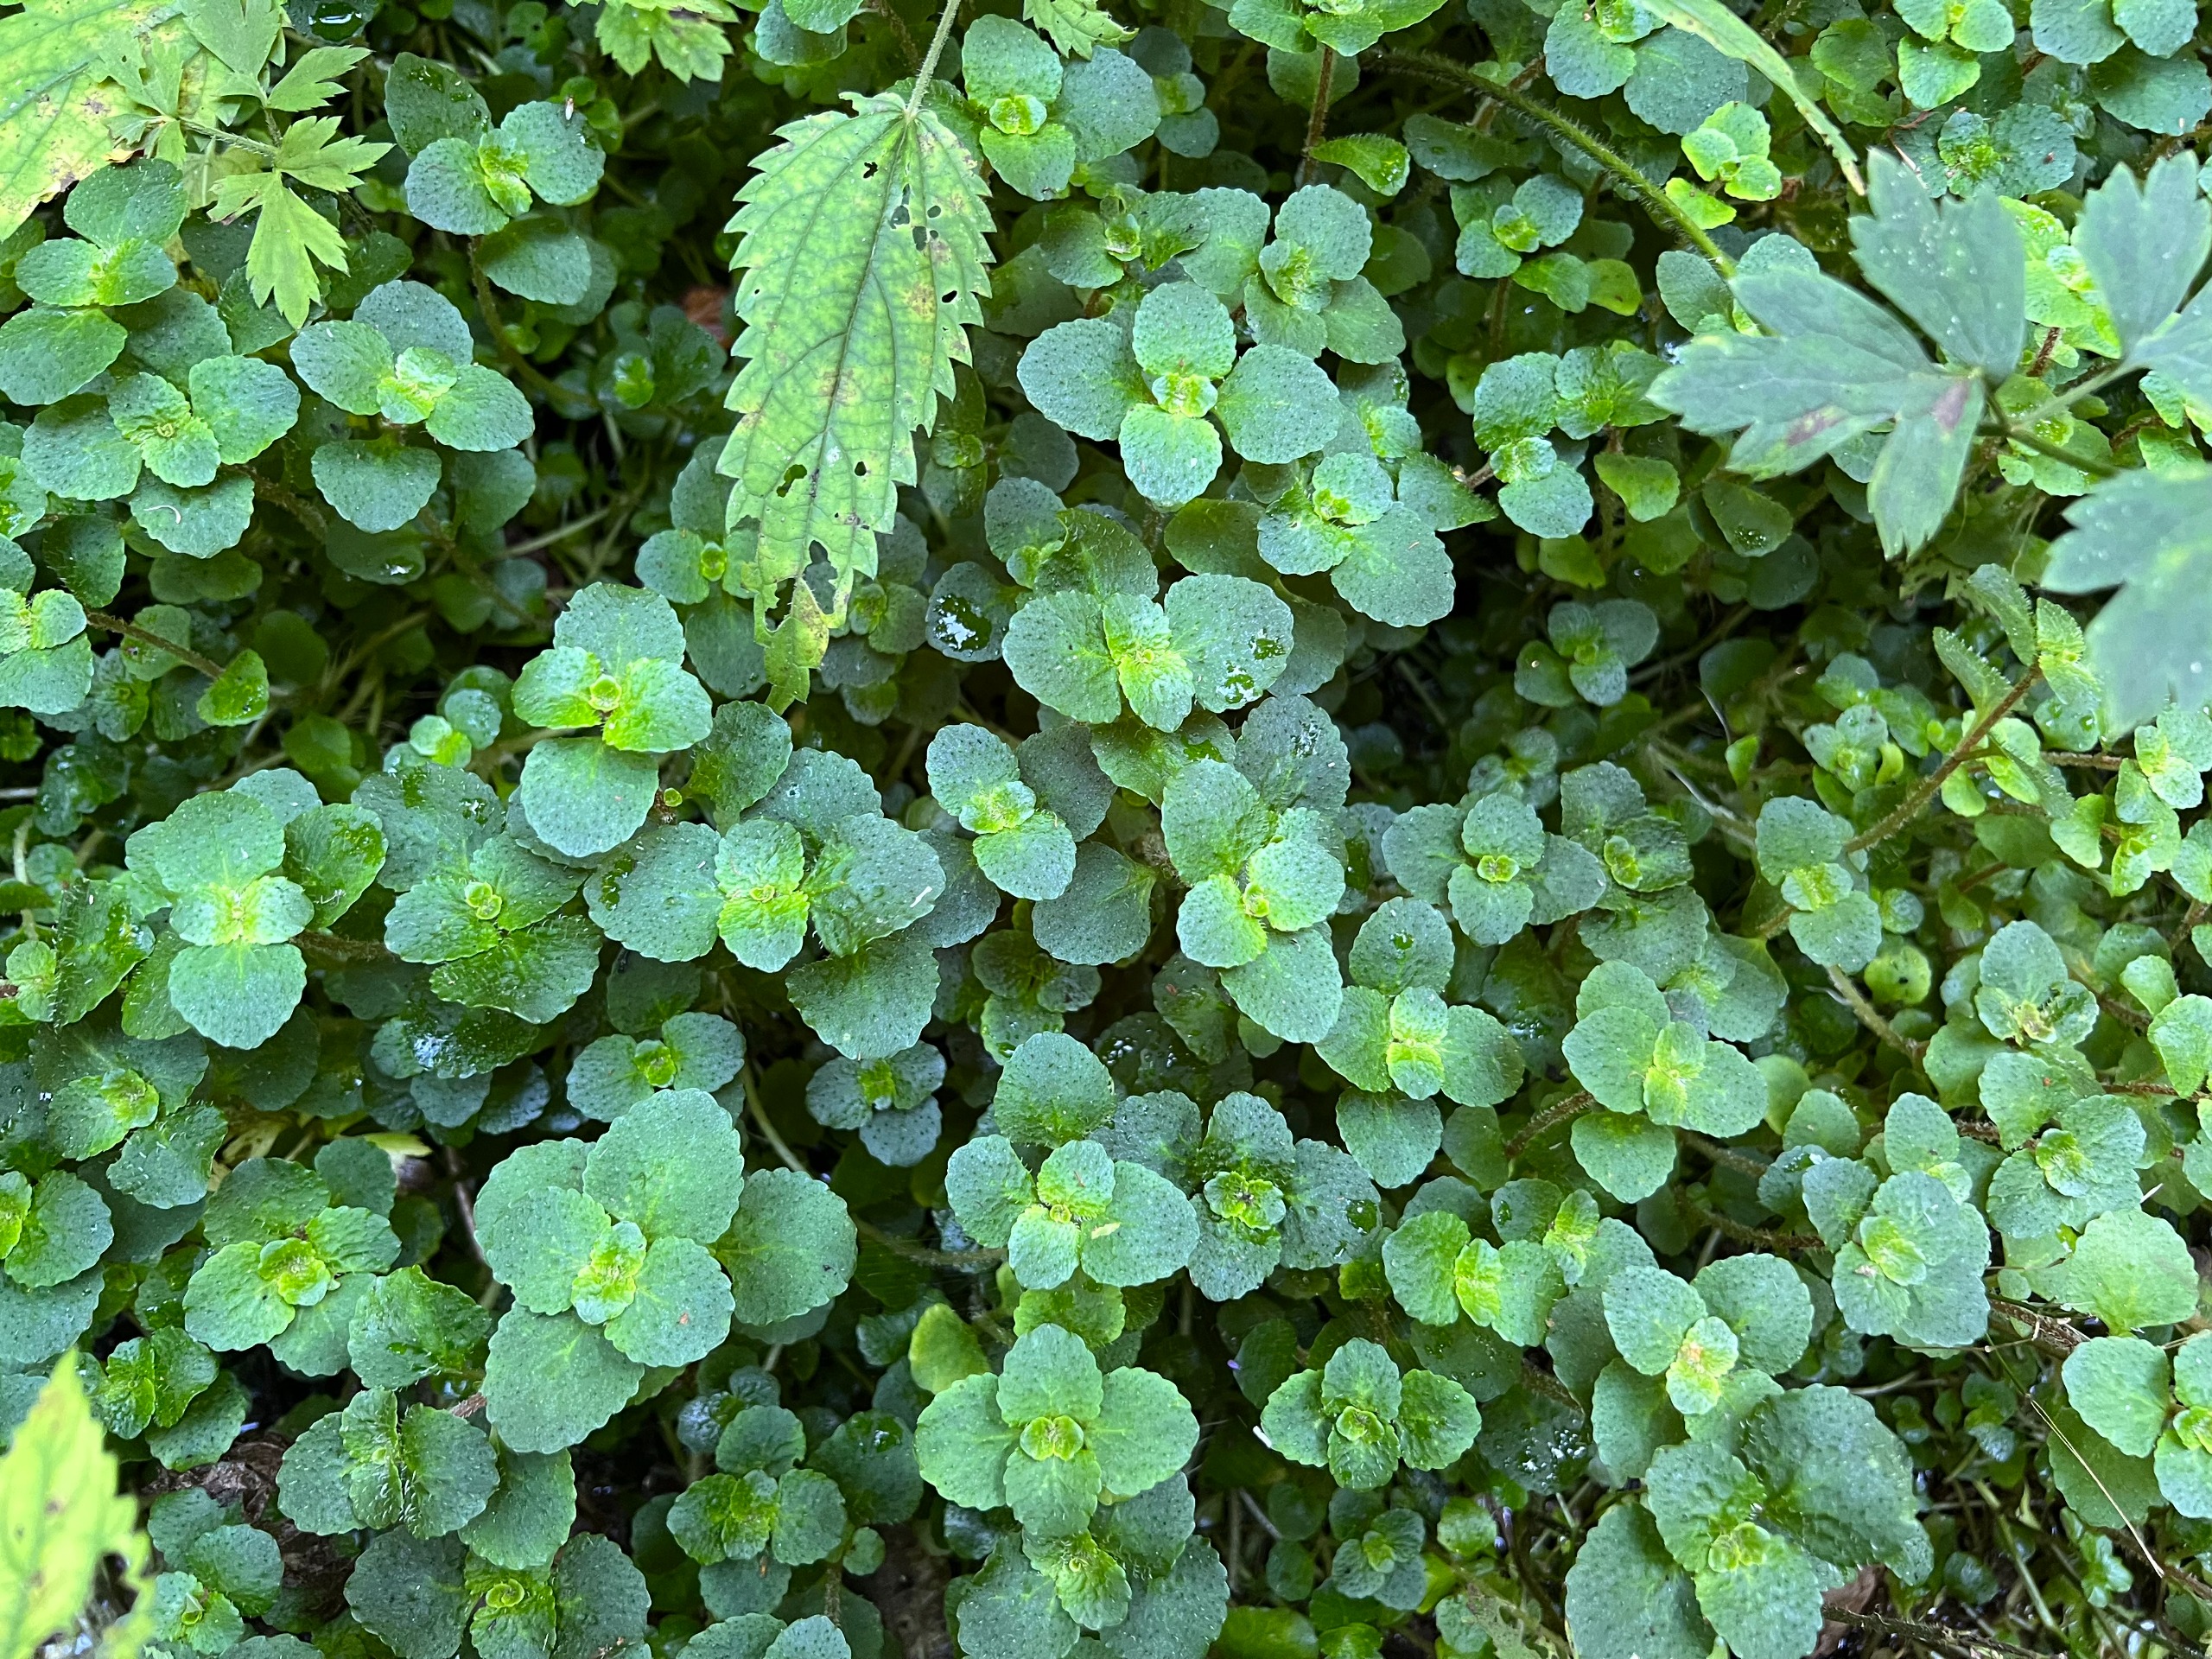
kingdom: Plantae
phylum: Tracheophyta
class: Magnoliopsida
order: Saxifragales
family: Saxifragaceae
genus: Chrysosplenium
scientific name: Chrysosplenium oppositifolium
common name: Småbladet milturt
